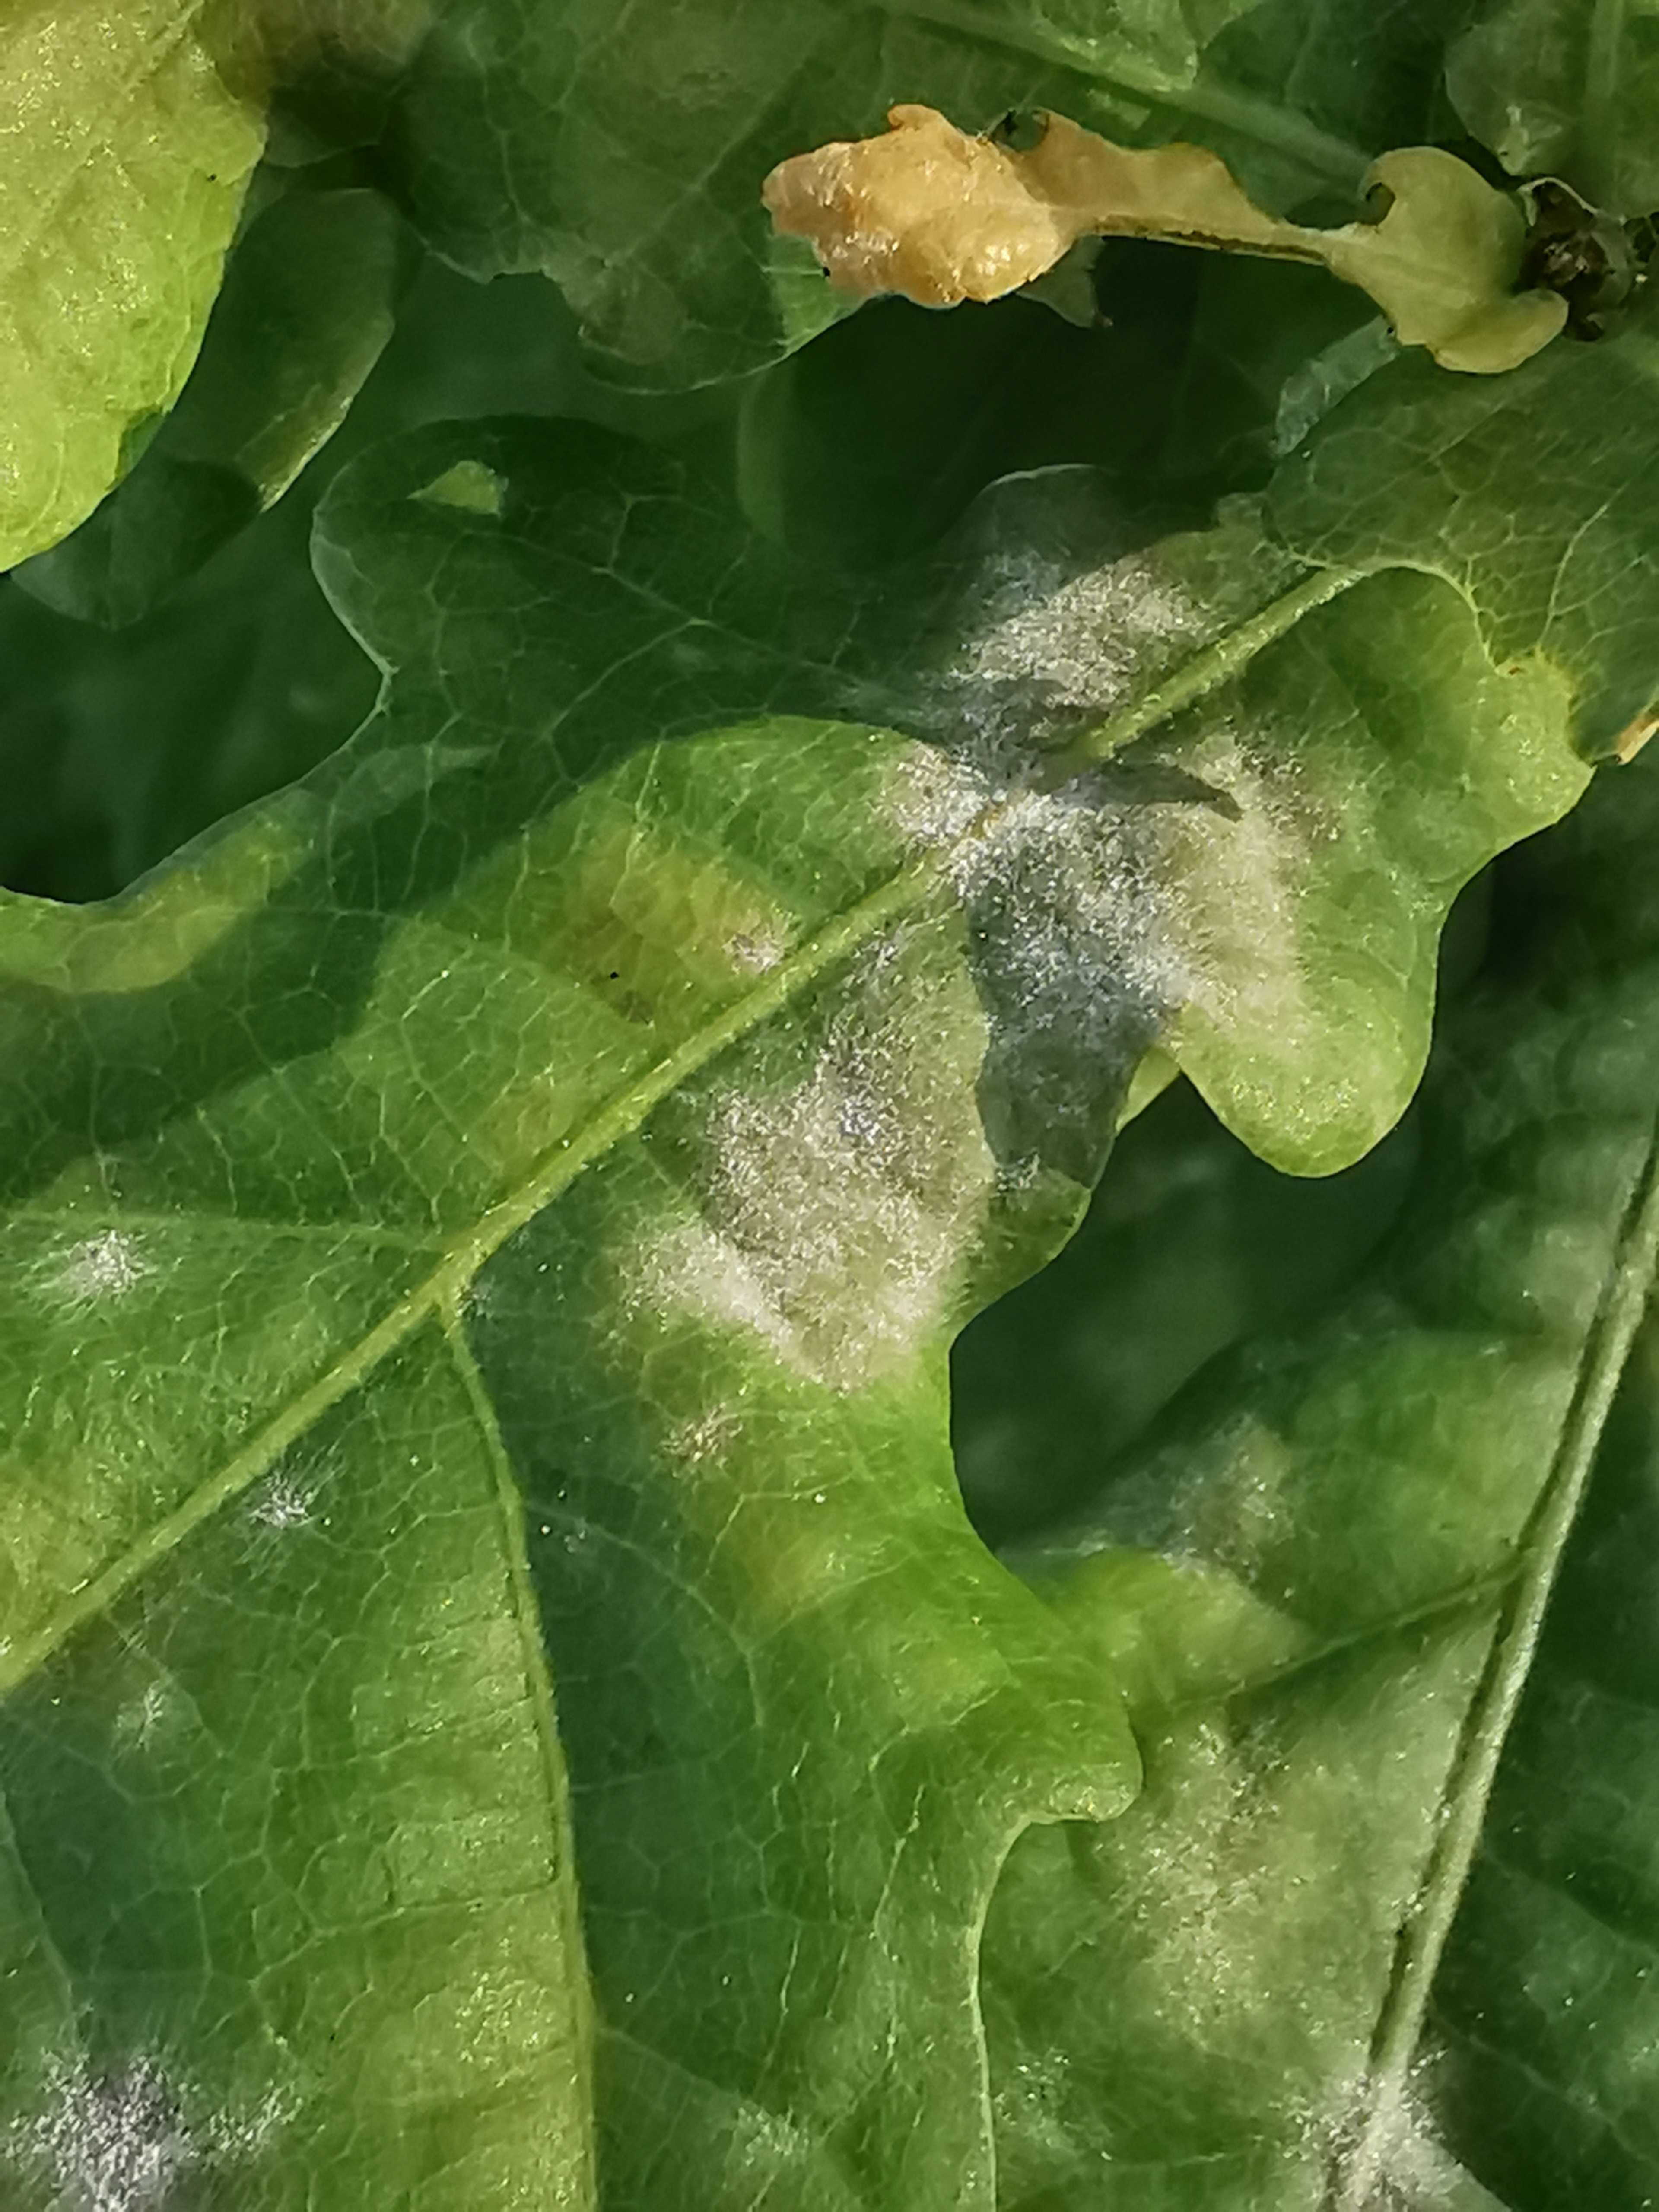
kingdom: Fungi
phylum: Ascomycota
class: Leotiomycetes
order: Helotiales
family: Erysiphaceae
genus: Erysiphe
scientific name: Erysiphe alphitoides
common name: ege-meldug
